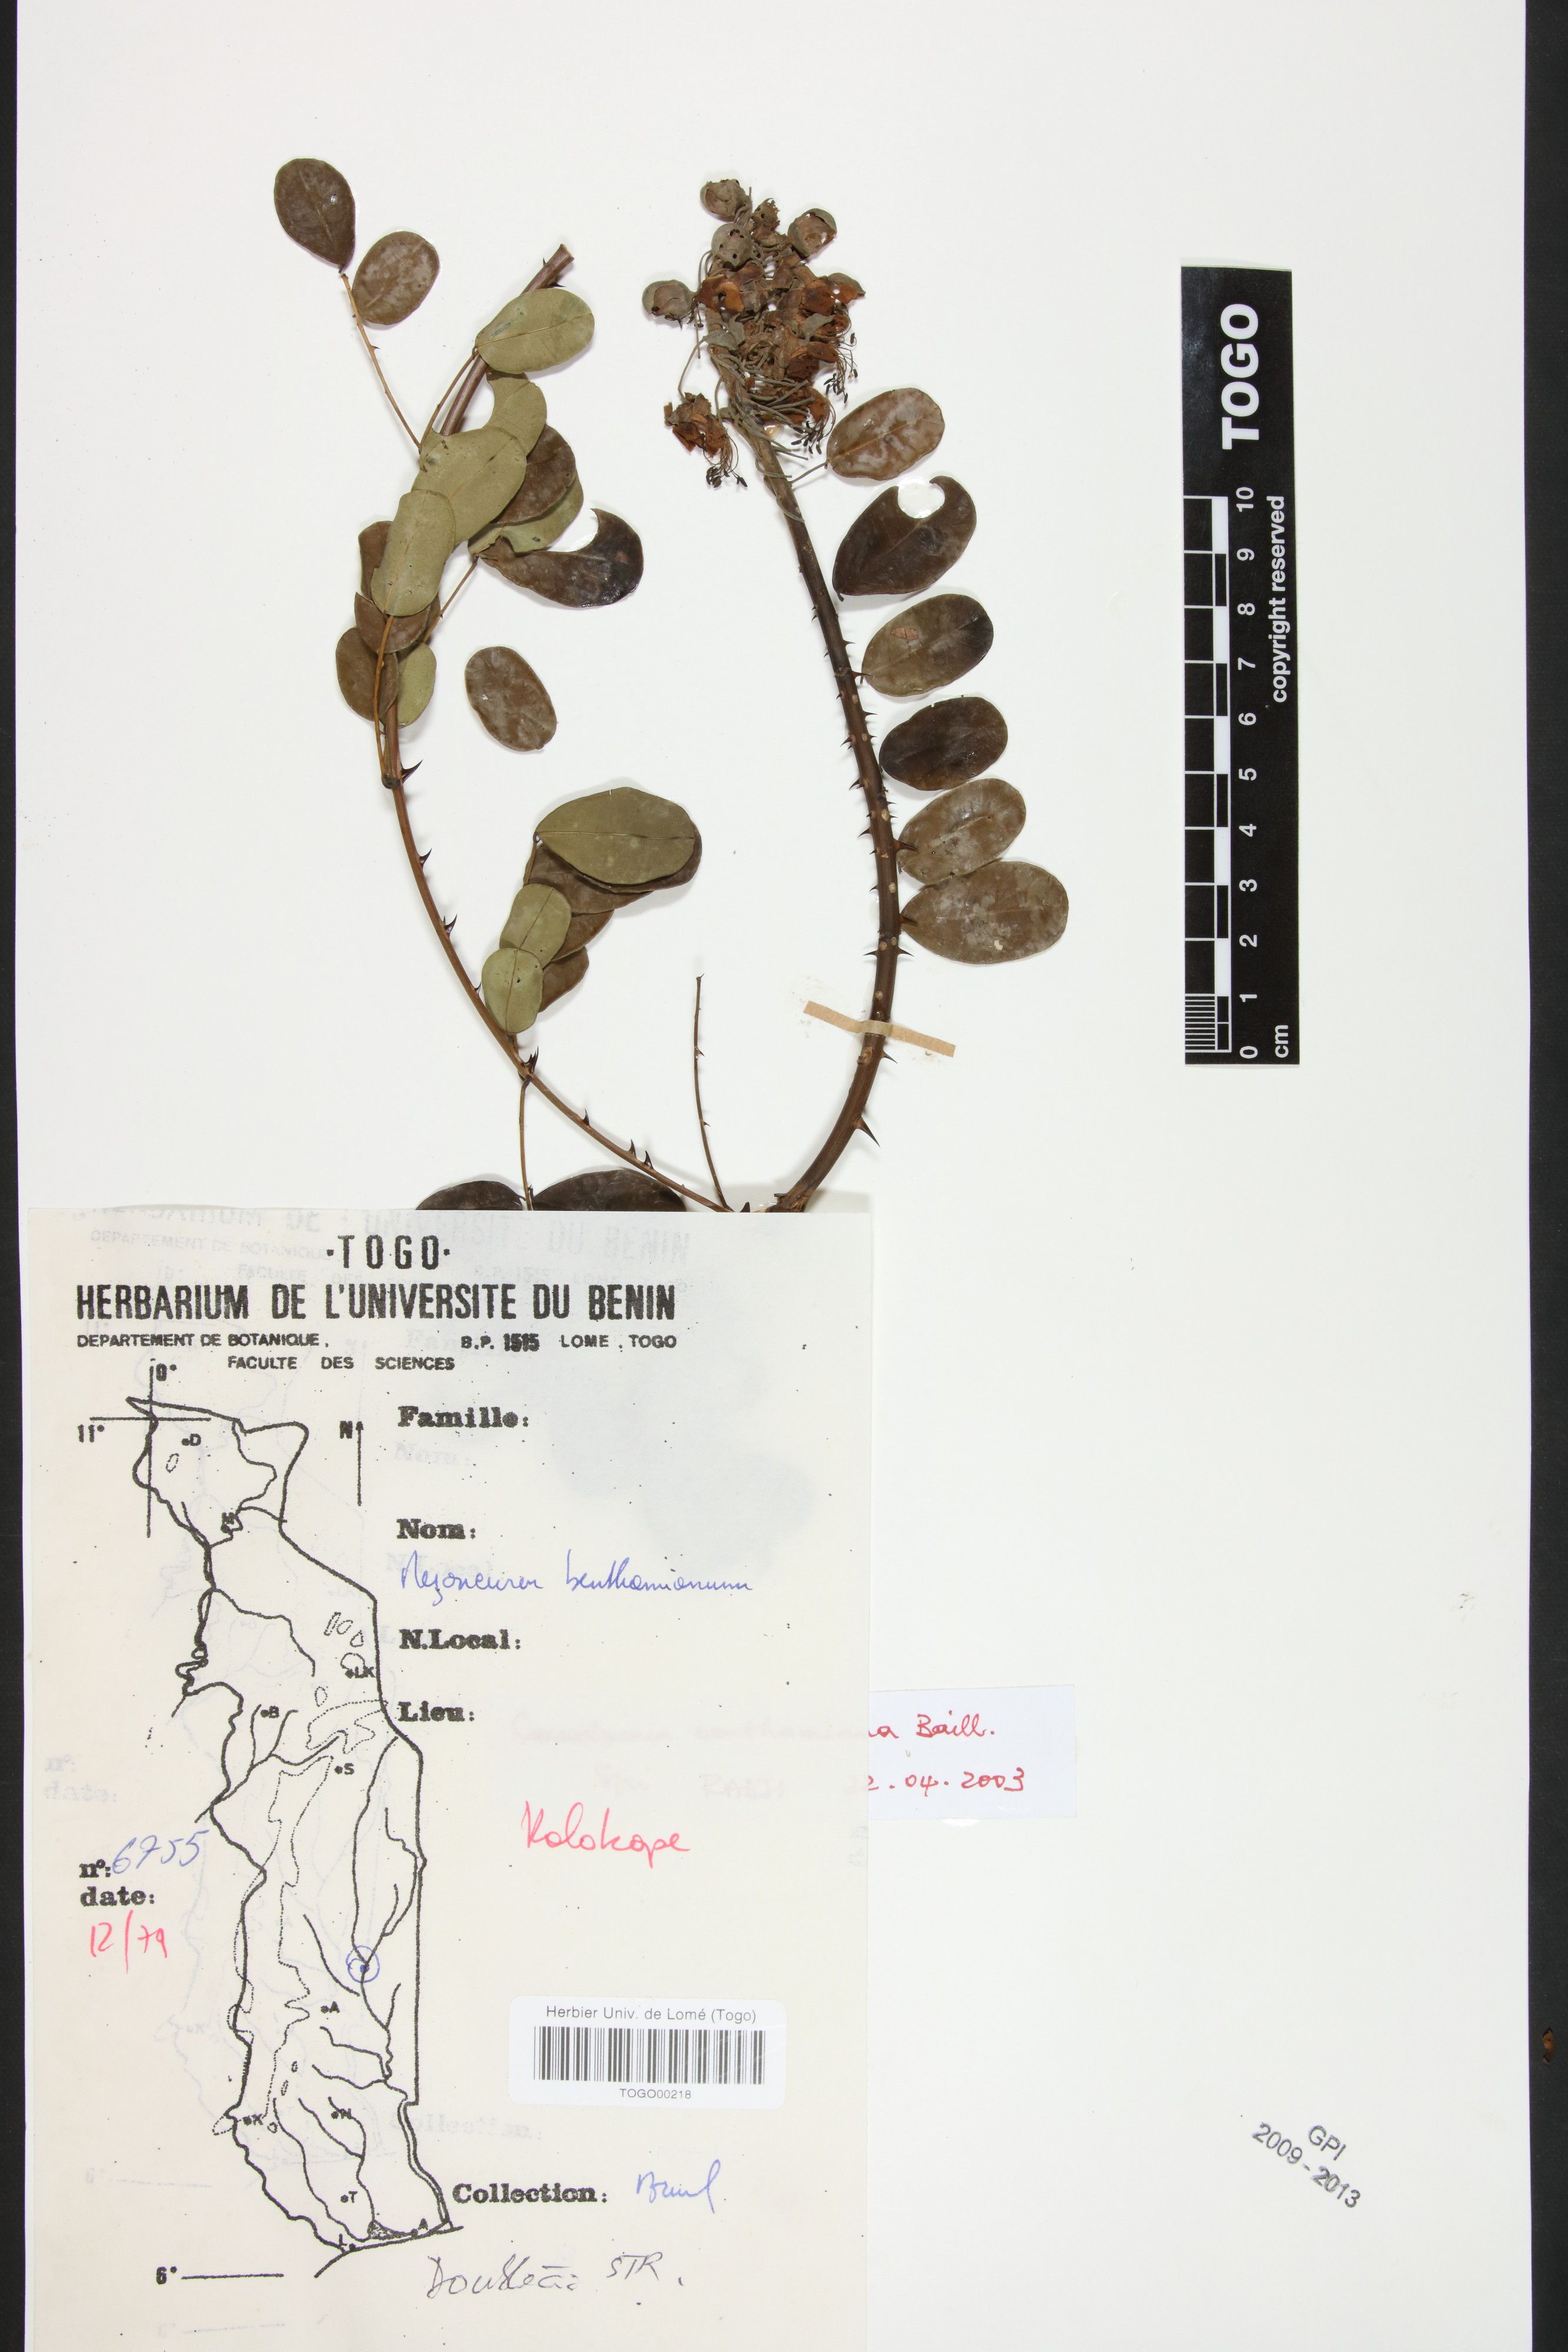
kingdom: Plantae
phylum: Tracheophyta
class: Magnoliopsida
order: Fabales
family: Fabaceae
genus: Mezoneuron
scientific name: Mezoneuron benthamianum
